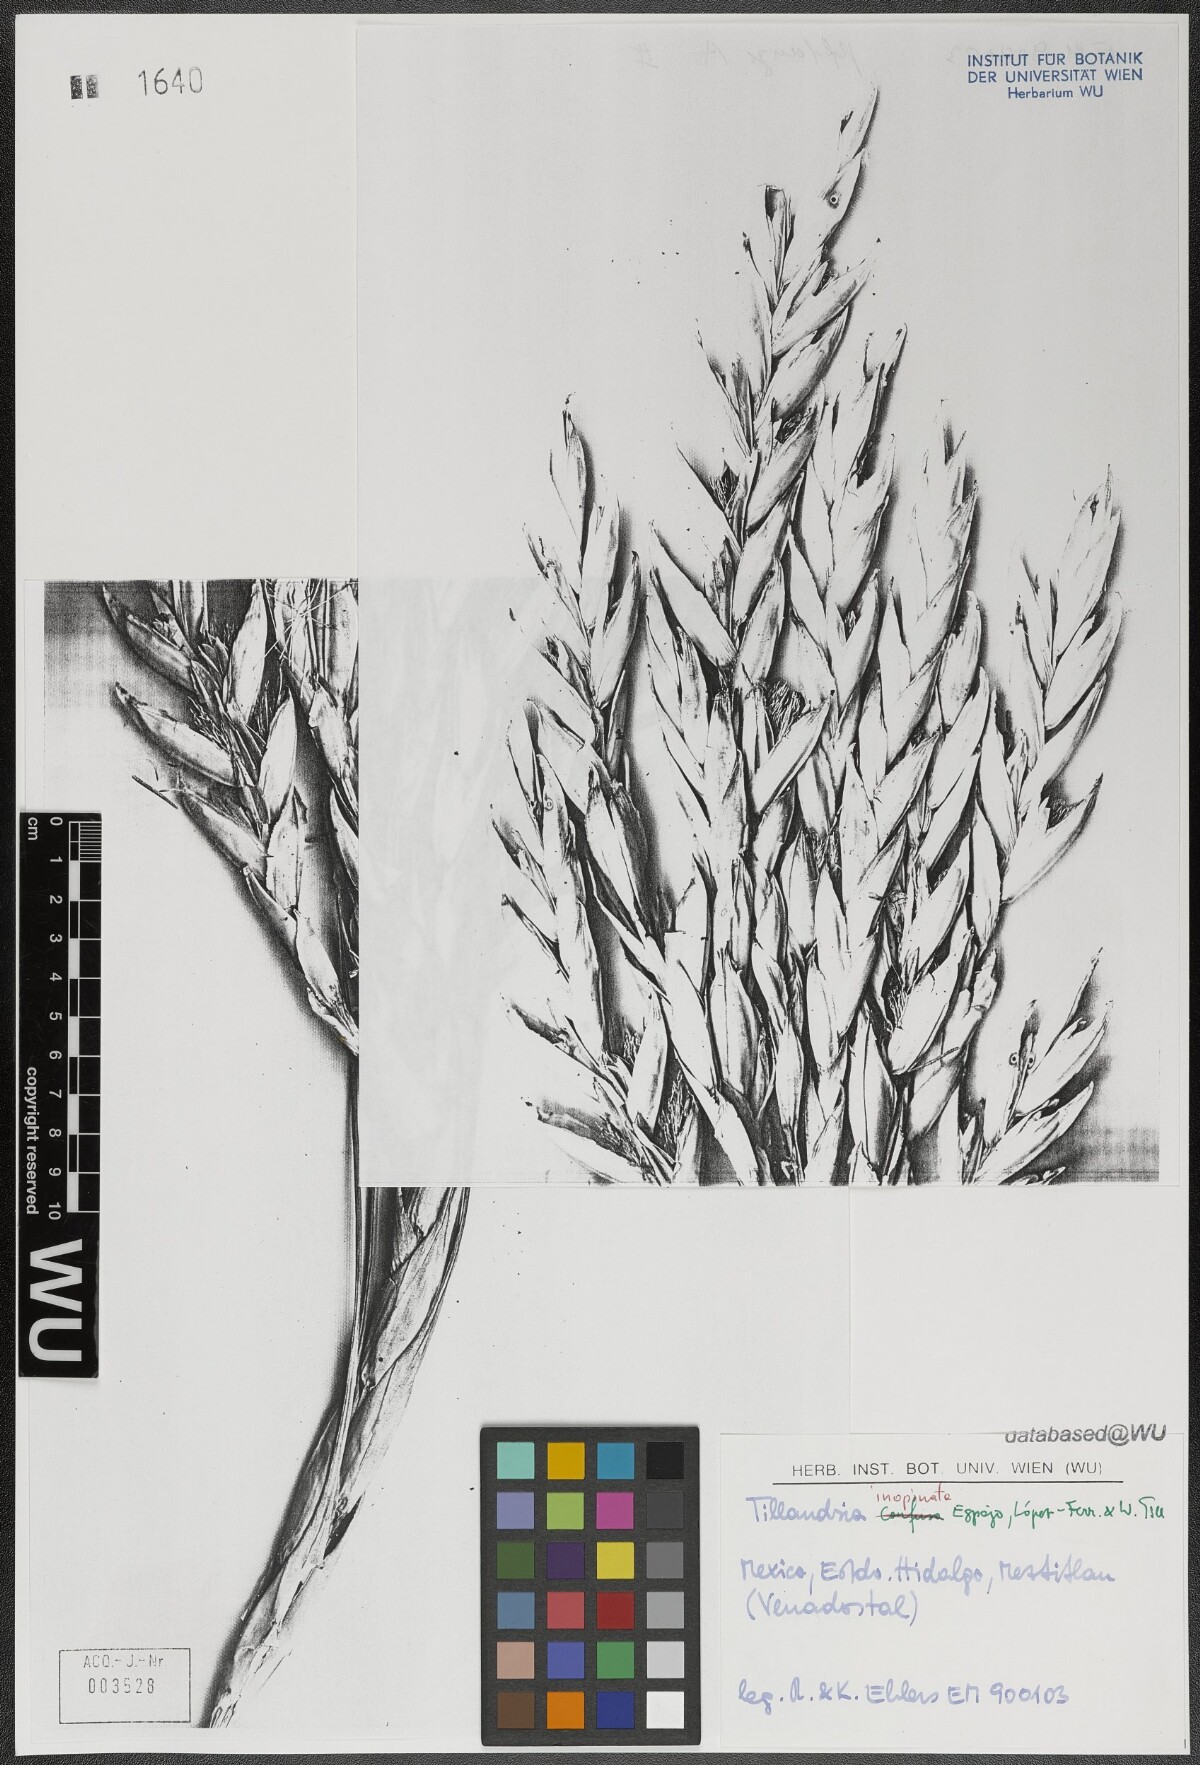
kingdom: Plantae
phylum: Tracheophyta
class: Liliopsida
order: Poales
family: Bromeliaceae
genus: Tillandsia
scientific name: Tillandsia inopinata
